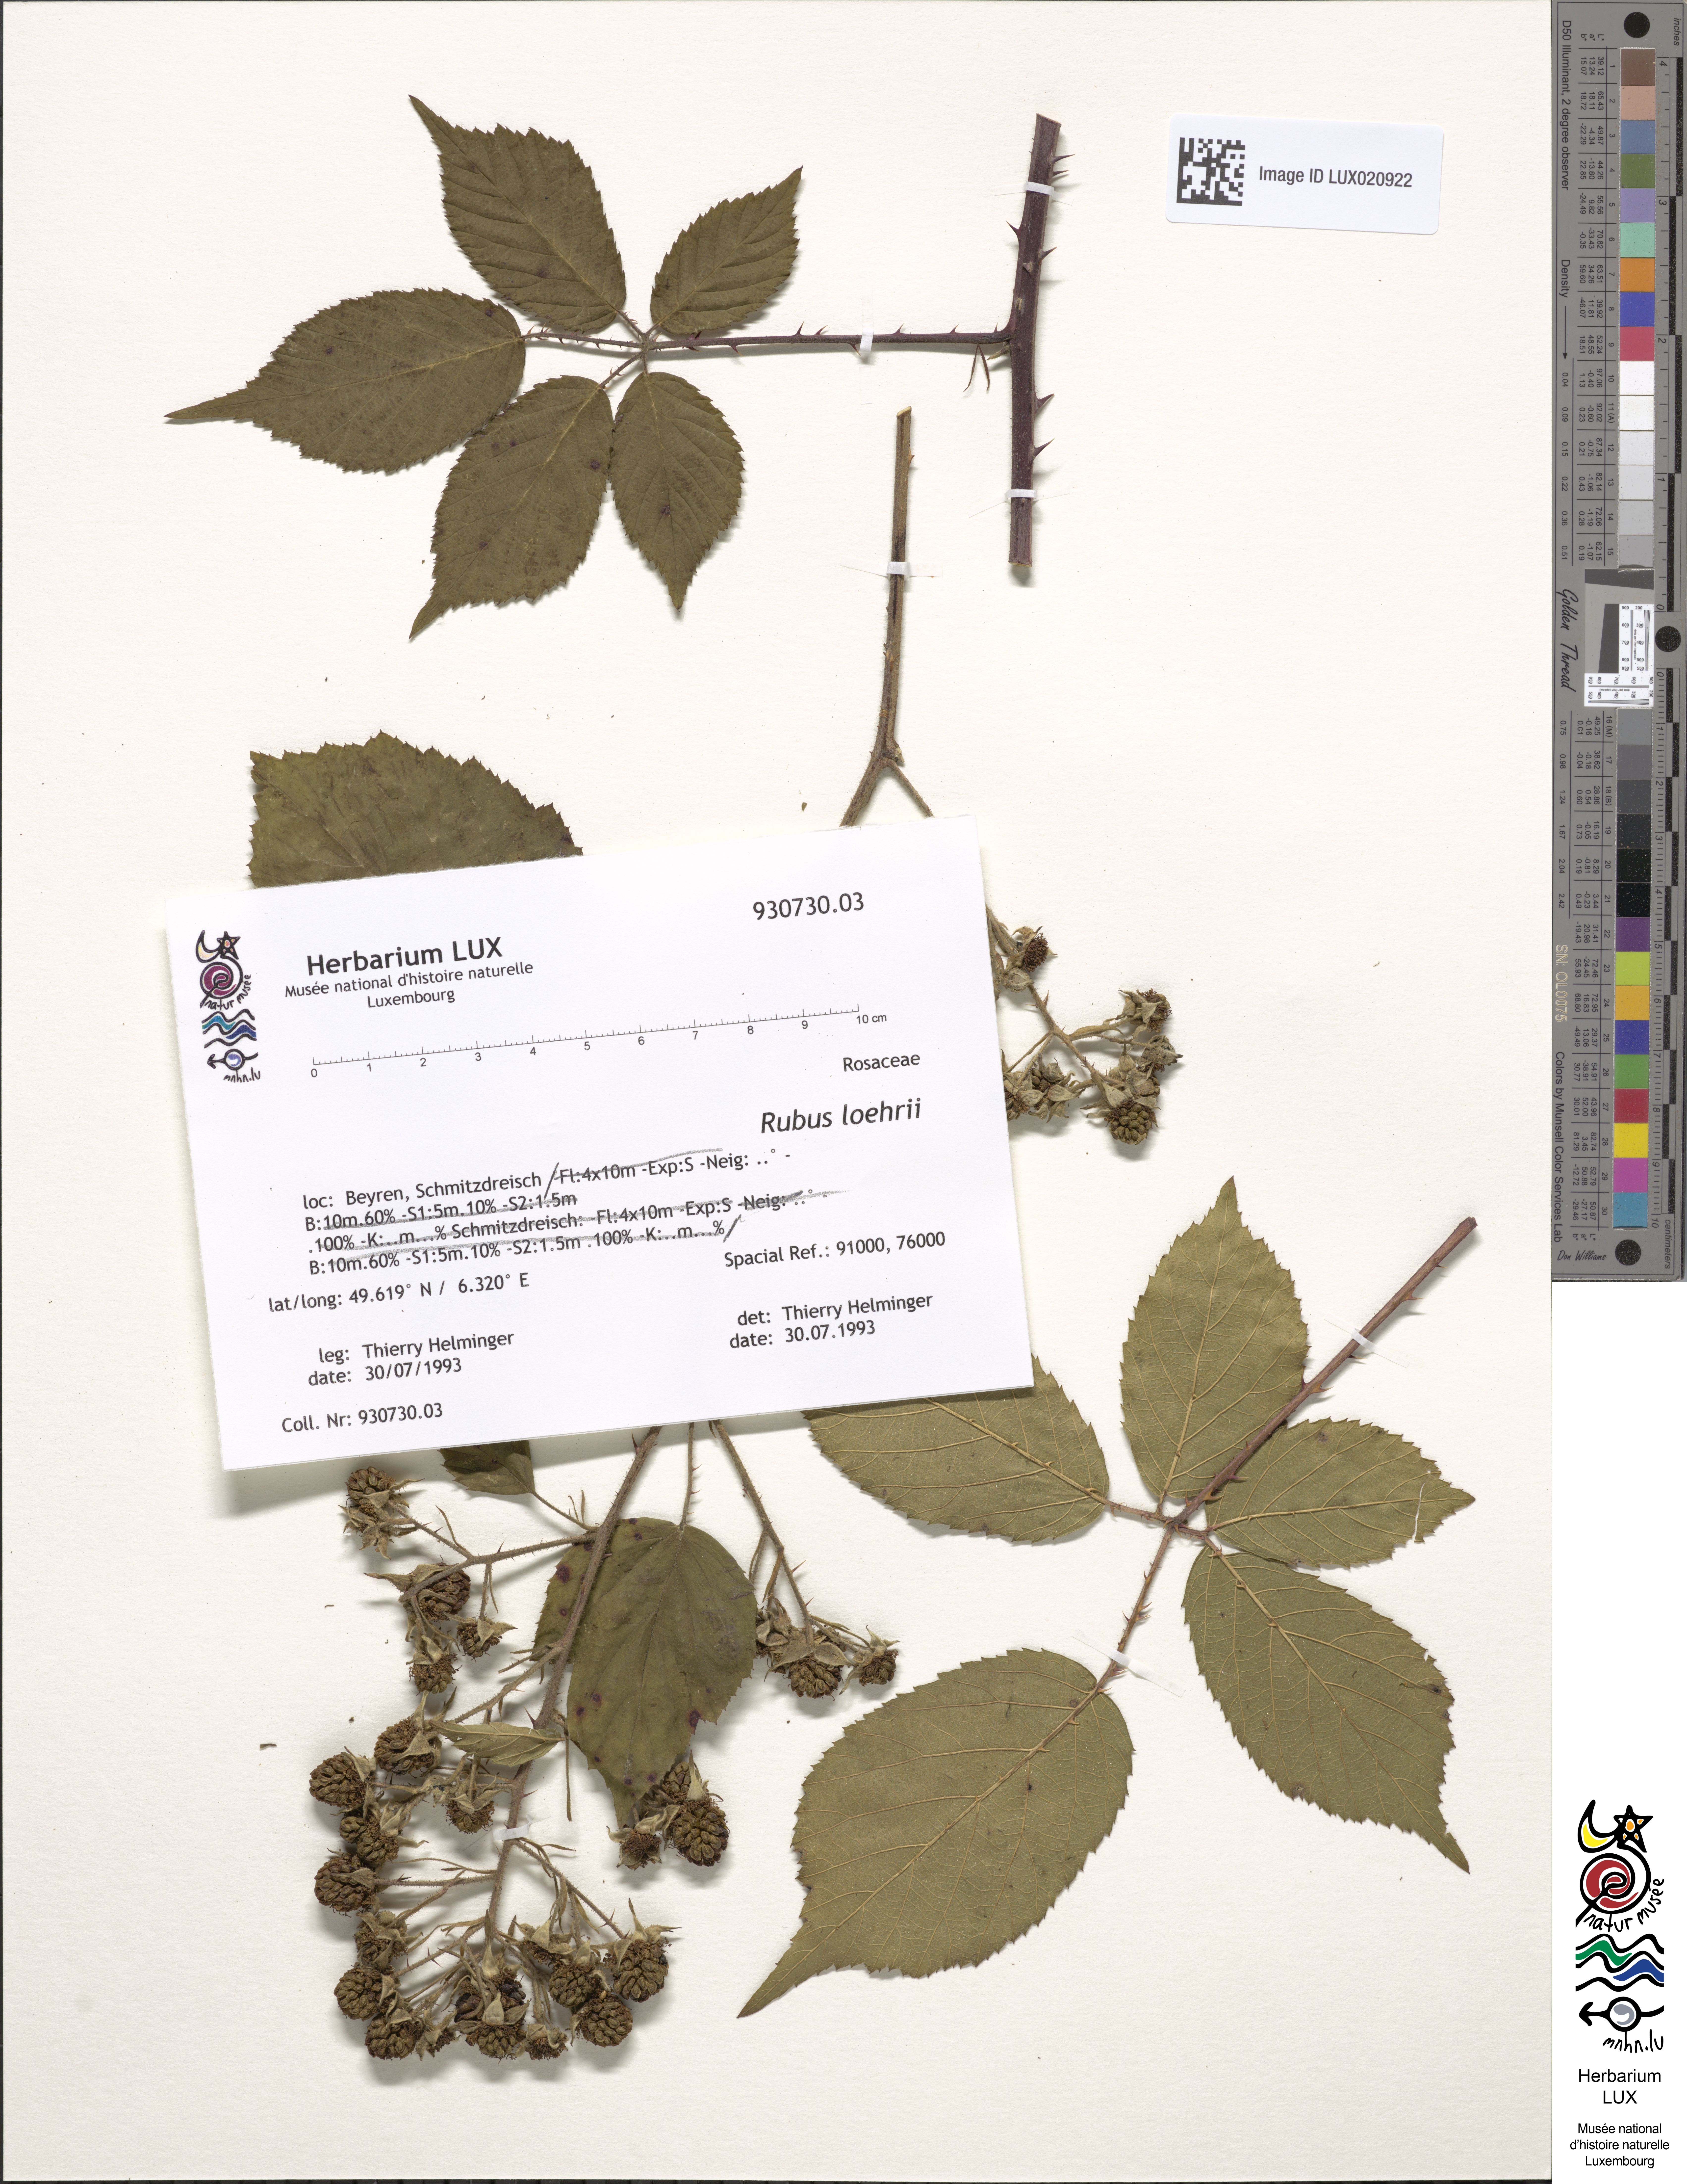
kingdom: Plantae
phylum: Tracheophyta
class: Magnoliopsida
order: Rosales
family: Rosaceae
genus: Rubus
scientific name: Rubus loehrii
